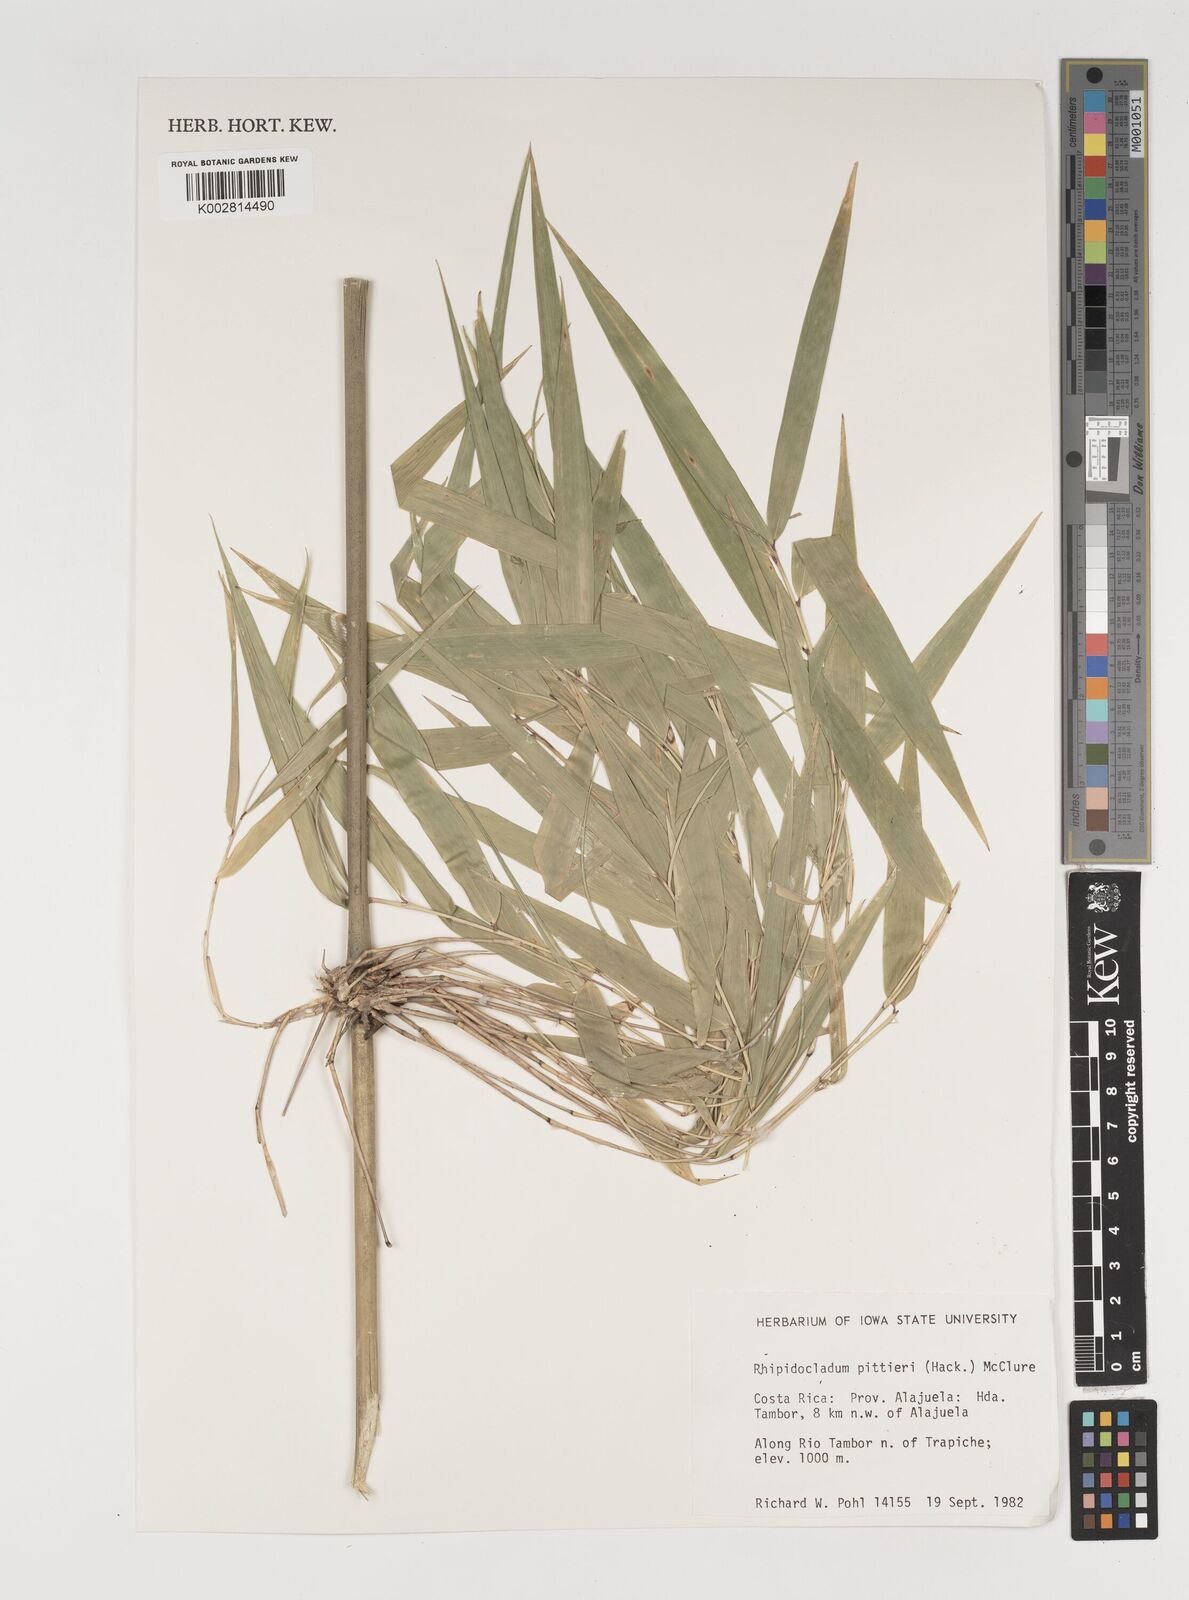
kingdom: Plantae
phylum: Tracheophyta
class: Liliopsida
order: Poales
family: Poaceae
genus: Rhipidocladum
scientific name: Rhipidocladum pittieri
